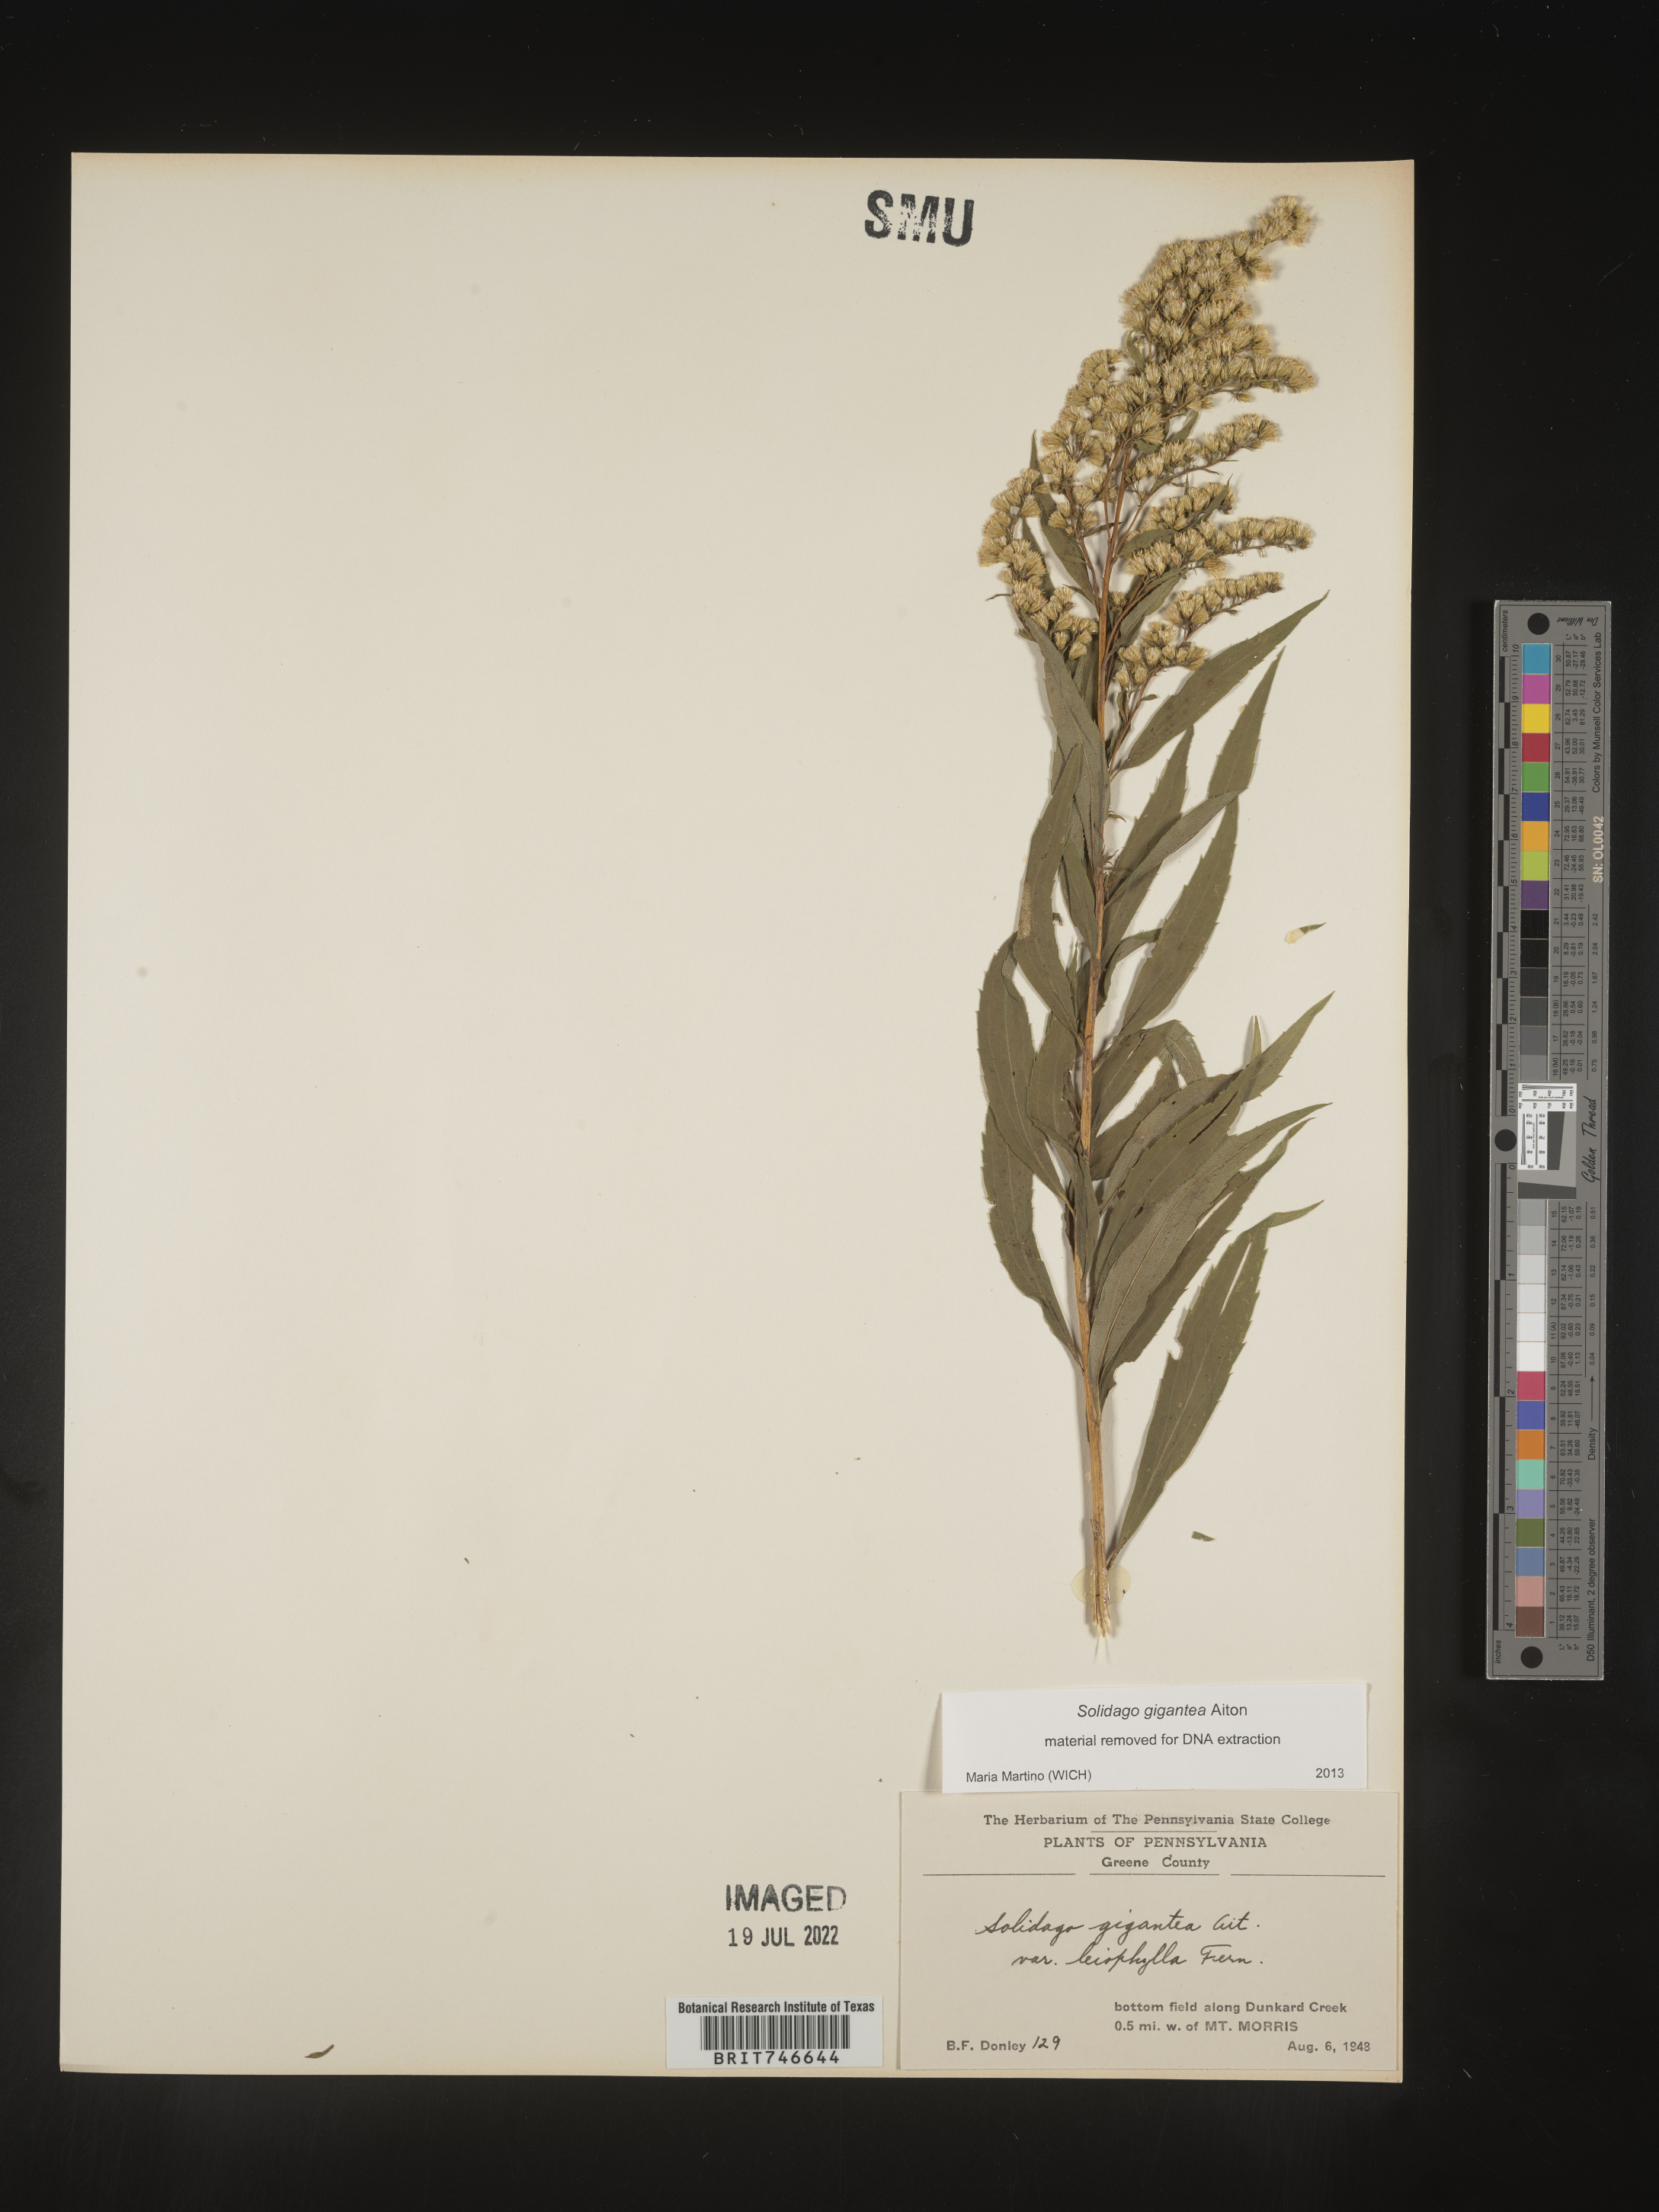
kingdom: Plantae
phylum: Tracheophyta
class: Magnoliopsida
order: Asterales
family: Asteraceae
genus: Solidago
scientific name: Solidago gigantea
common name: Giant goldenrod
